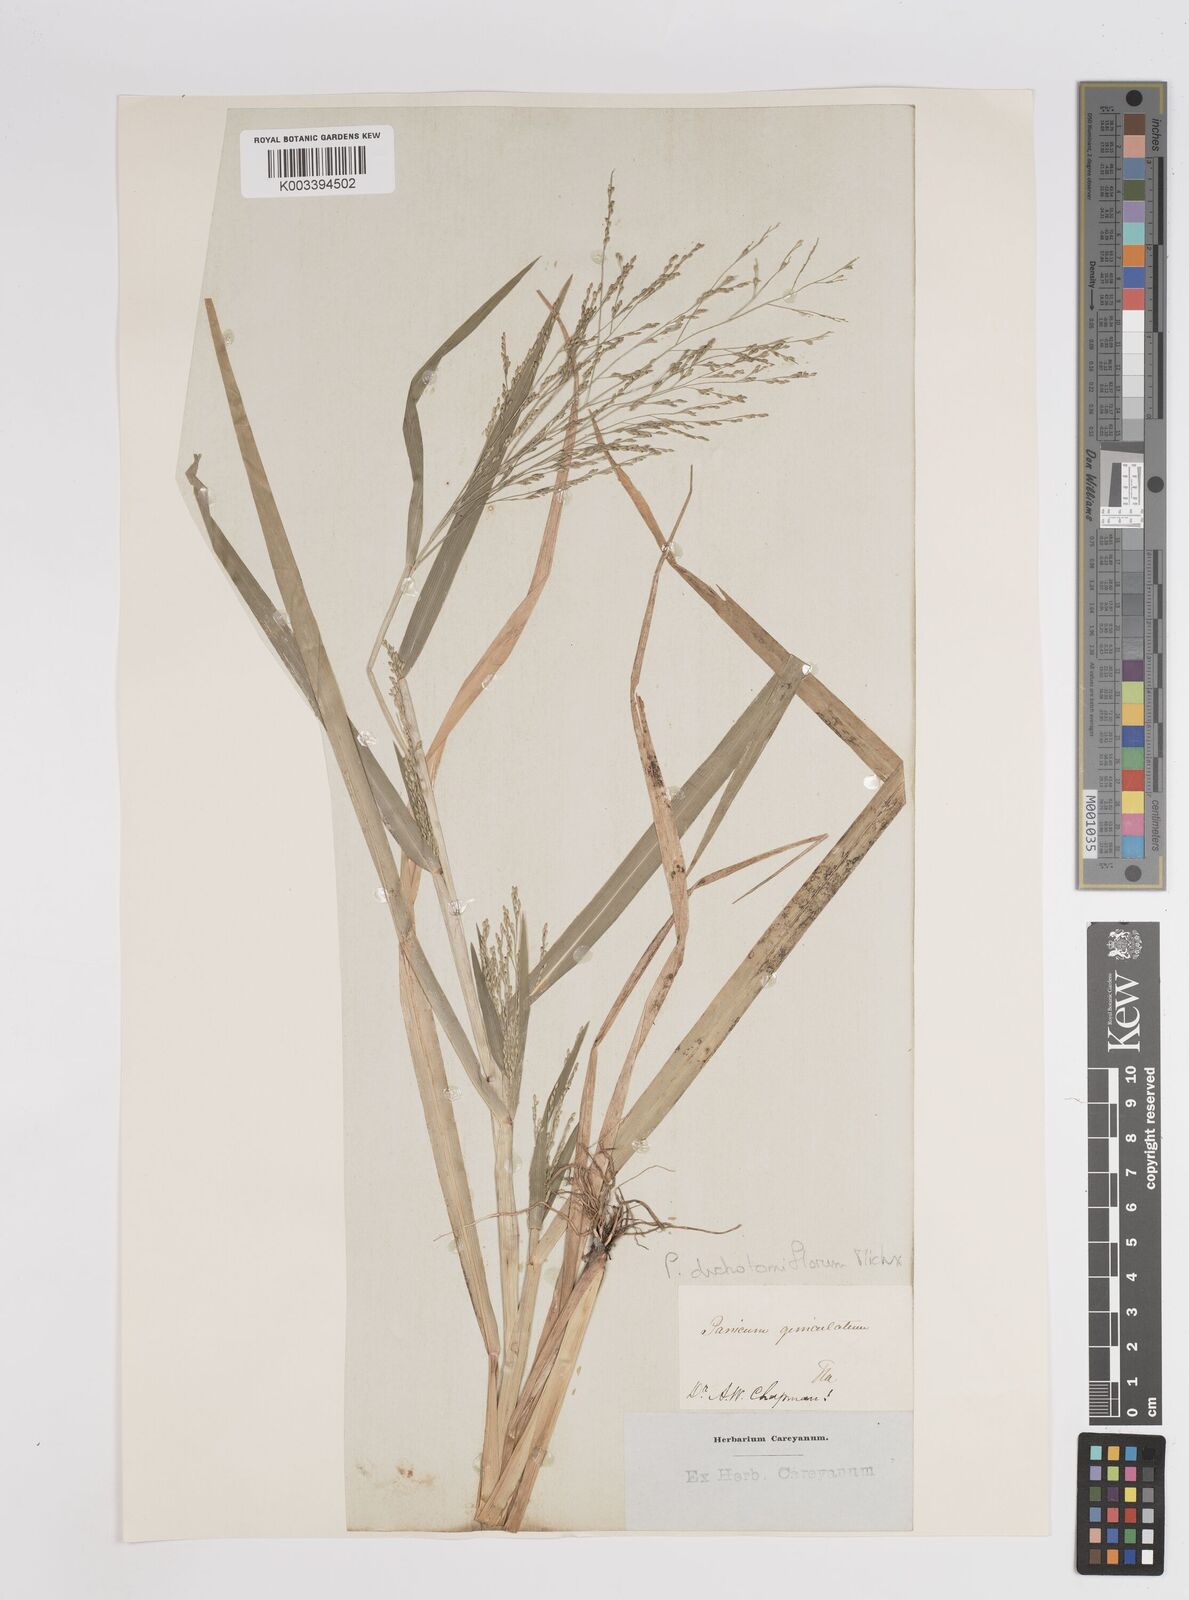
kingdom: Plantae
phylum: Tracheophyta
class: Liliopsida
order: Poales
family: Poaceae
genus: Panicum
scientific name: Panicum dichotomiflorum
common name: Autumn millet
